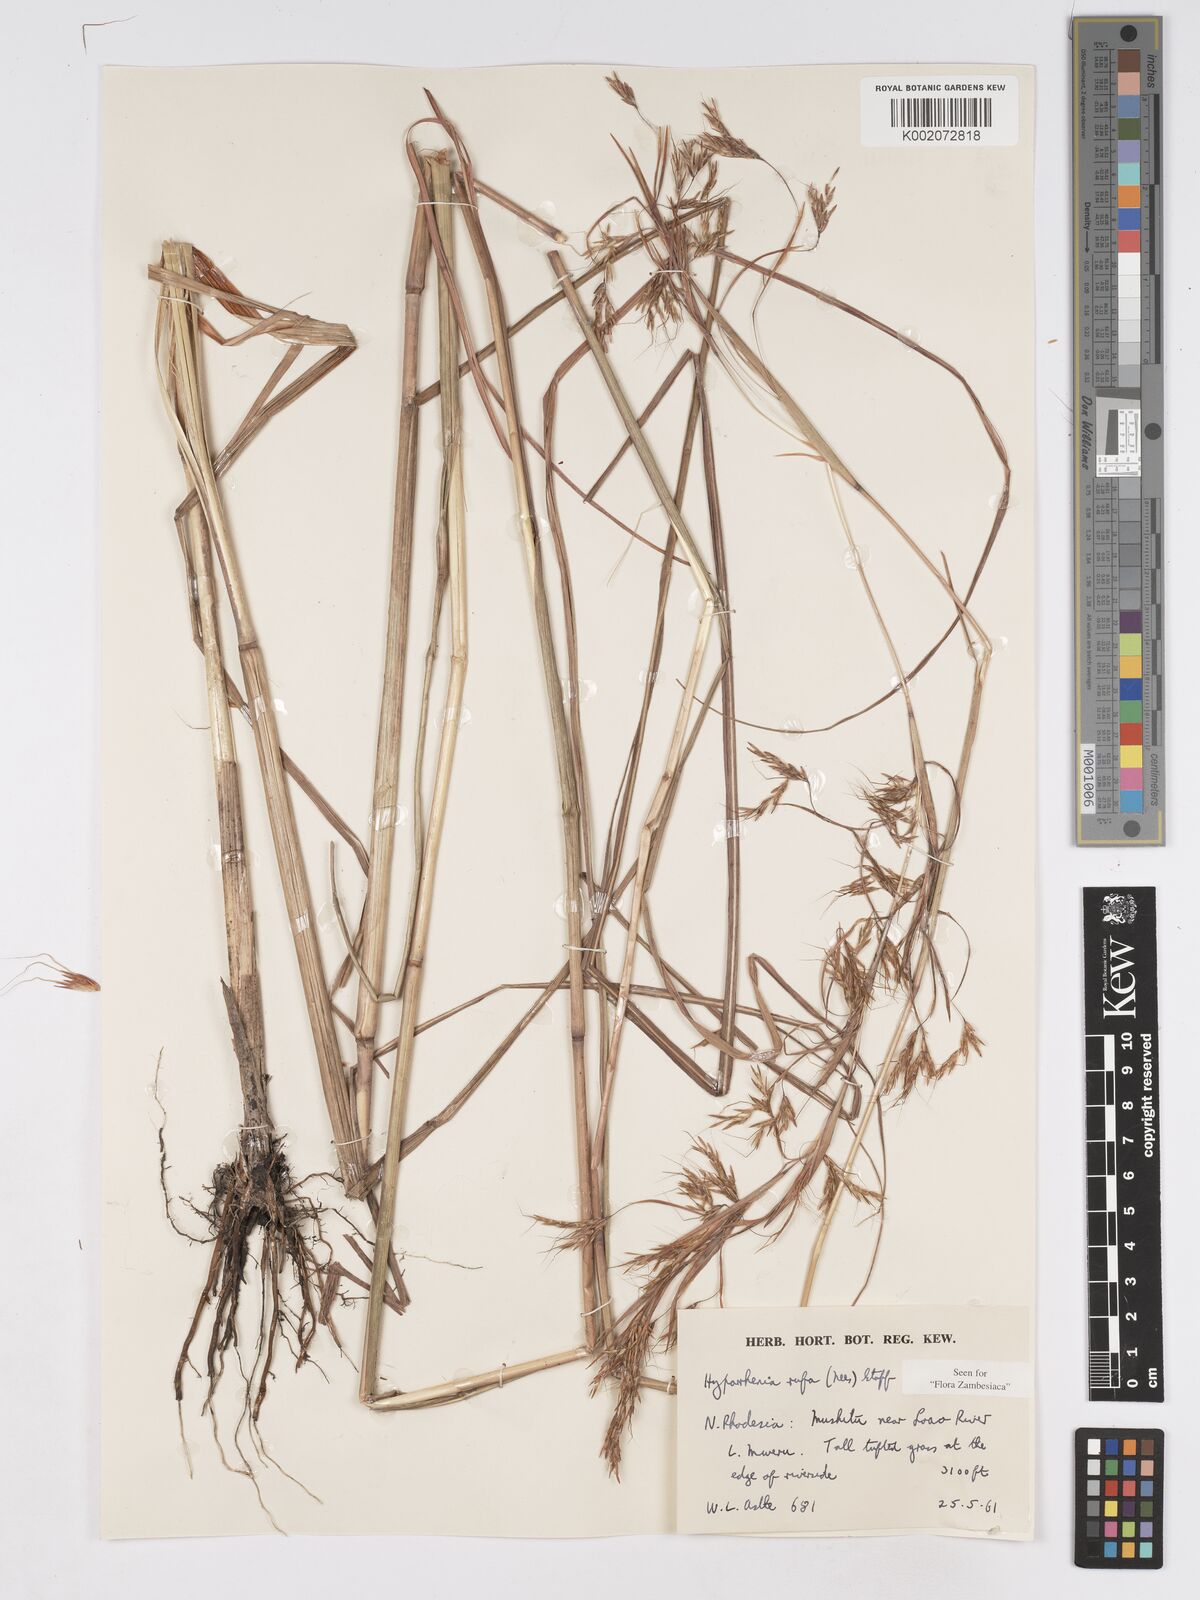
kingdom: Plantae
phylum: Tracheophyta
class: Liliopsida
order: Poales
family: Poaceae
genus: Hyparrhenia
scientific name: Hyparrhenia rufa
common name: Jaraguagrass
